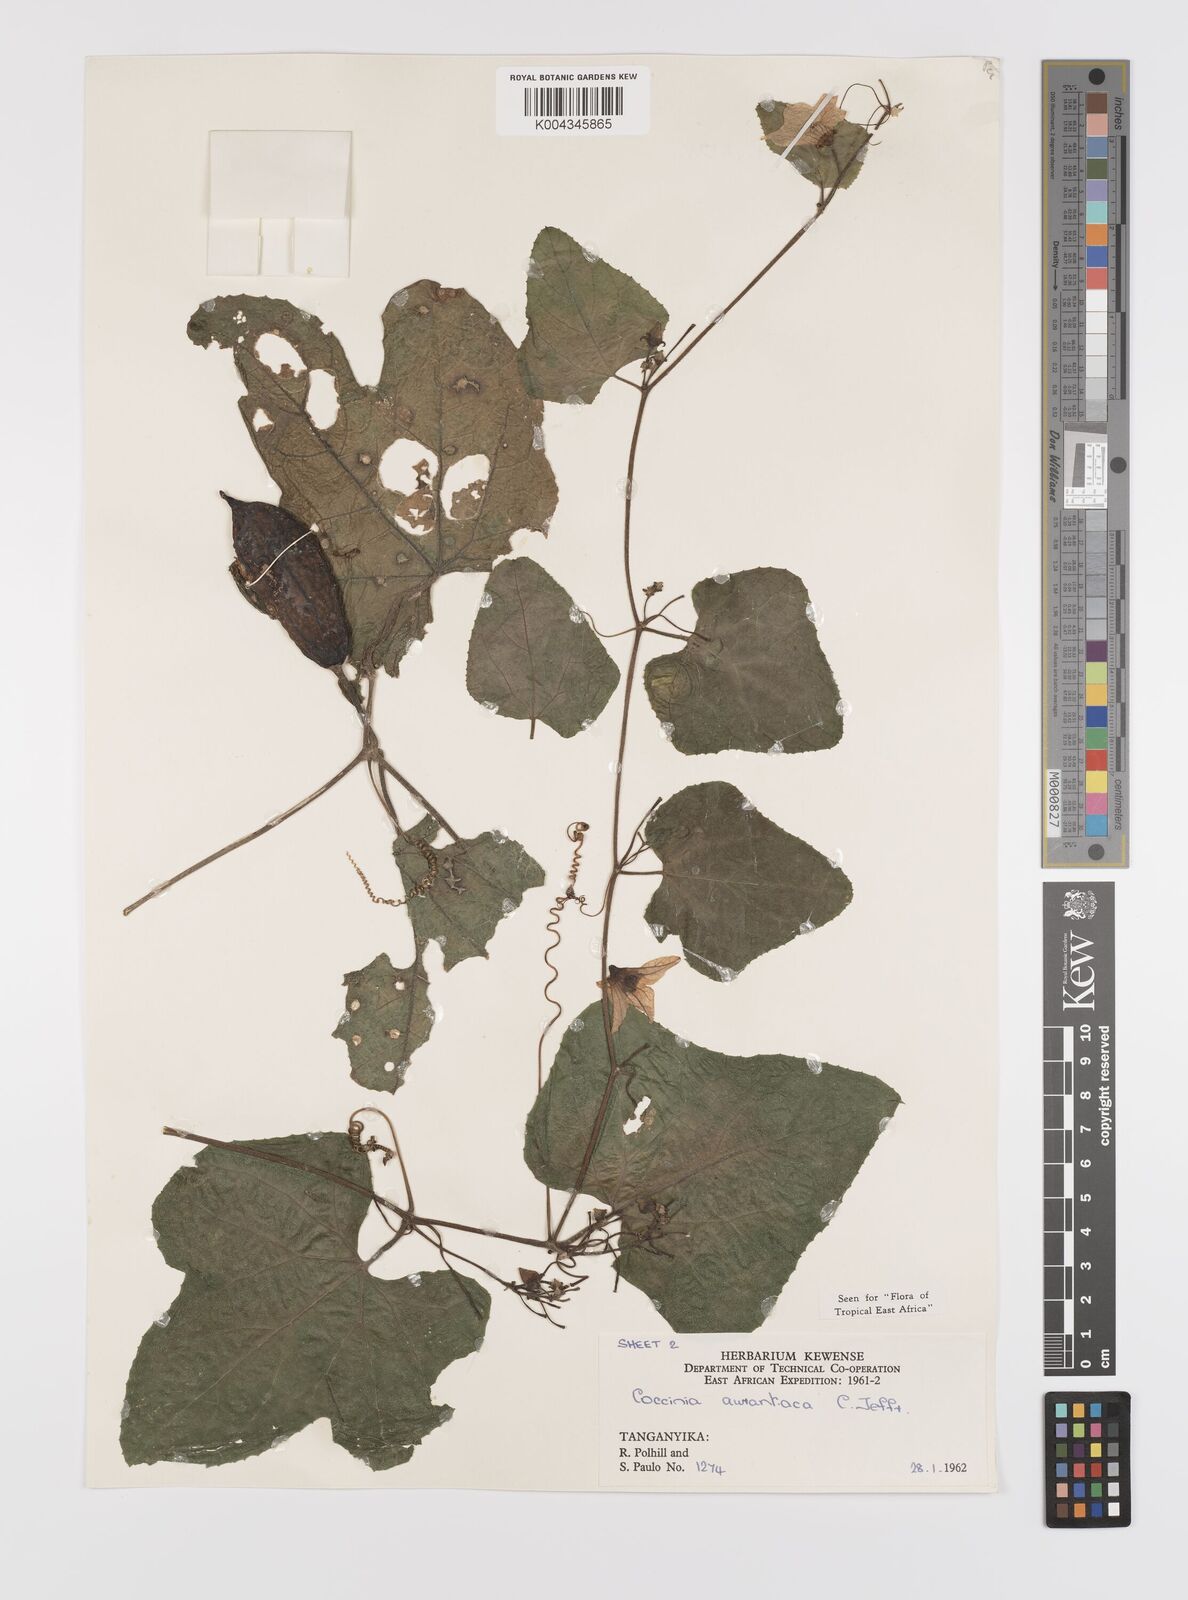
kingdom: Plantae
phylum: Tracheophyta
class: Magnoliopsida
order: Cucurbitales
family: Cucurbitaceae
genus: Coccinia
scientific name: Coccinia adoensis
